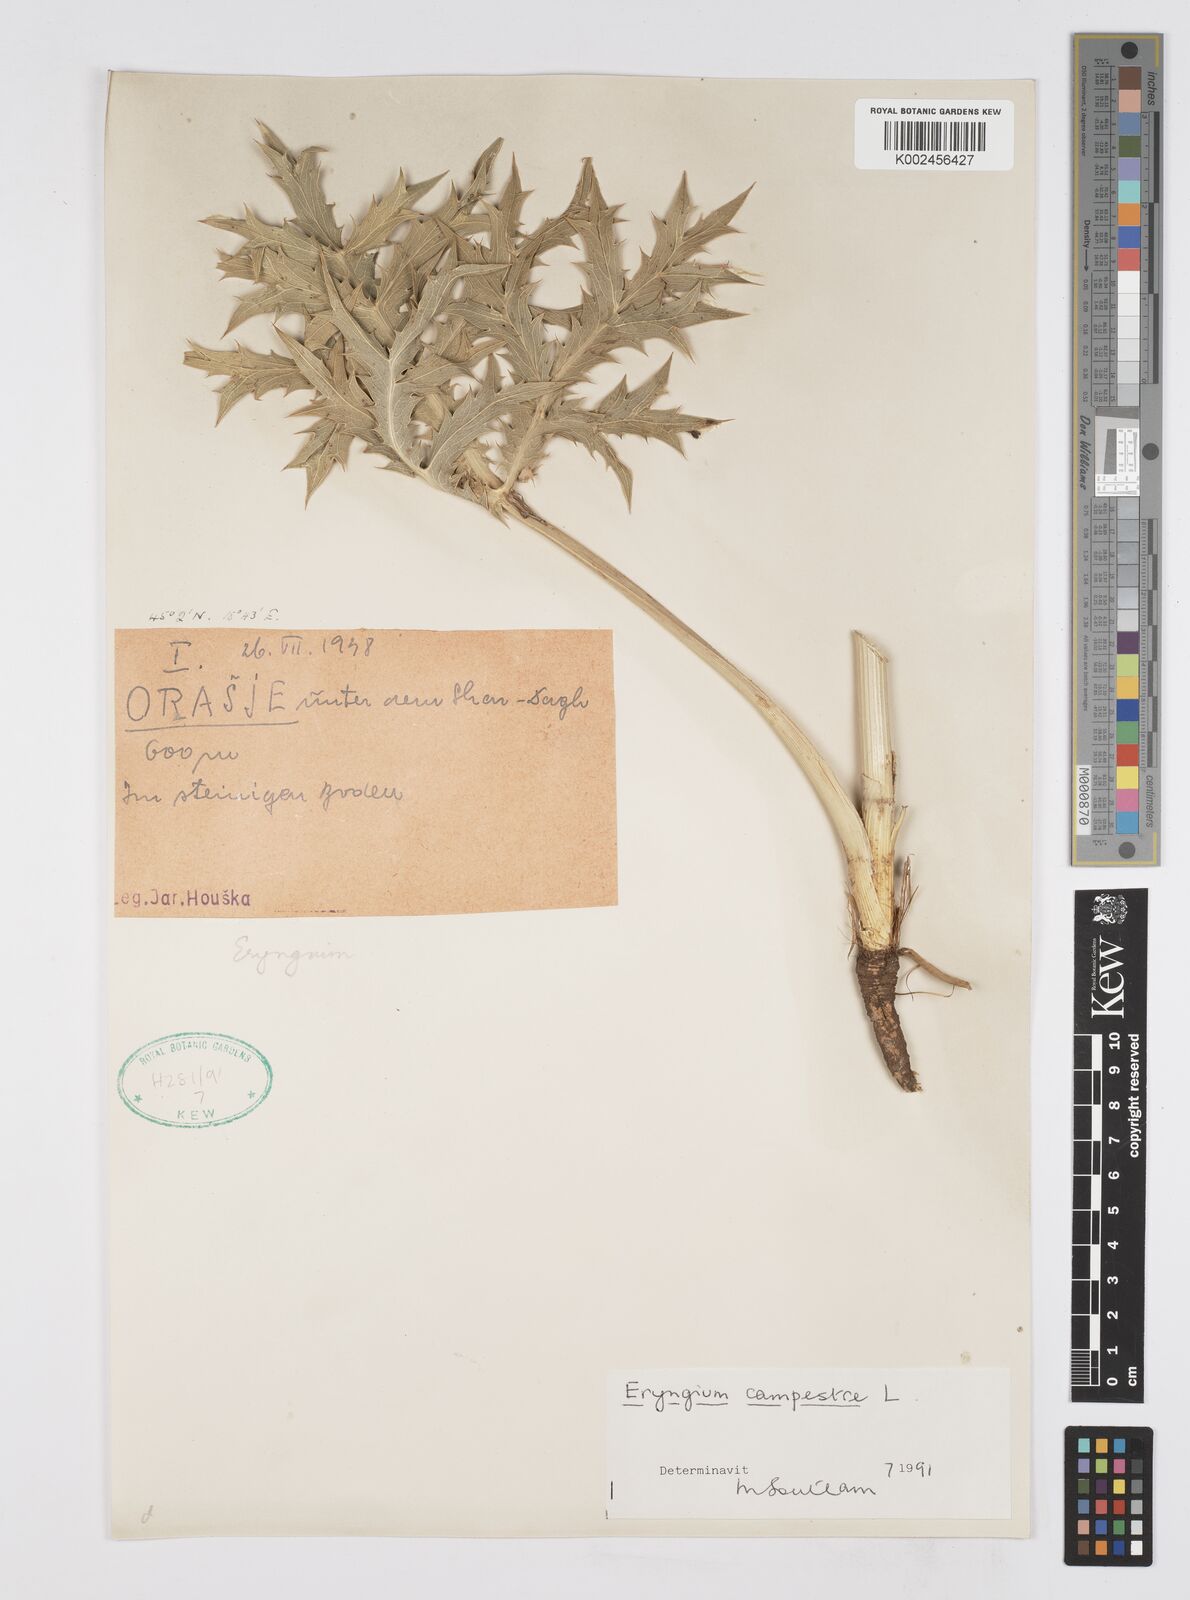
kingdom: Plantae
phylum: Tracheophyta
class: Magnoliopsida
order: Apiales
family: Apiaceae
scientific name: Apiaceae
